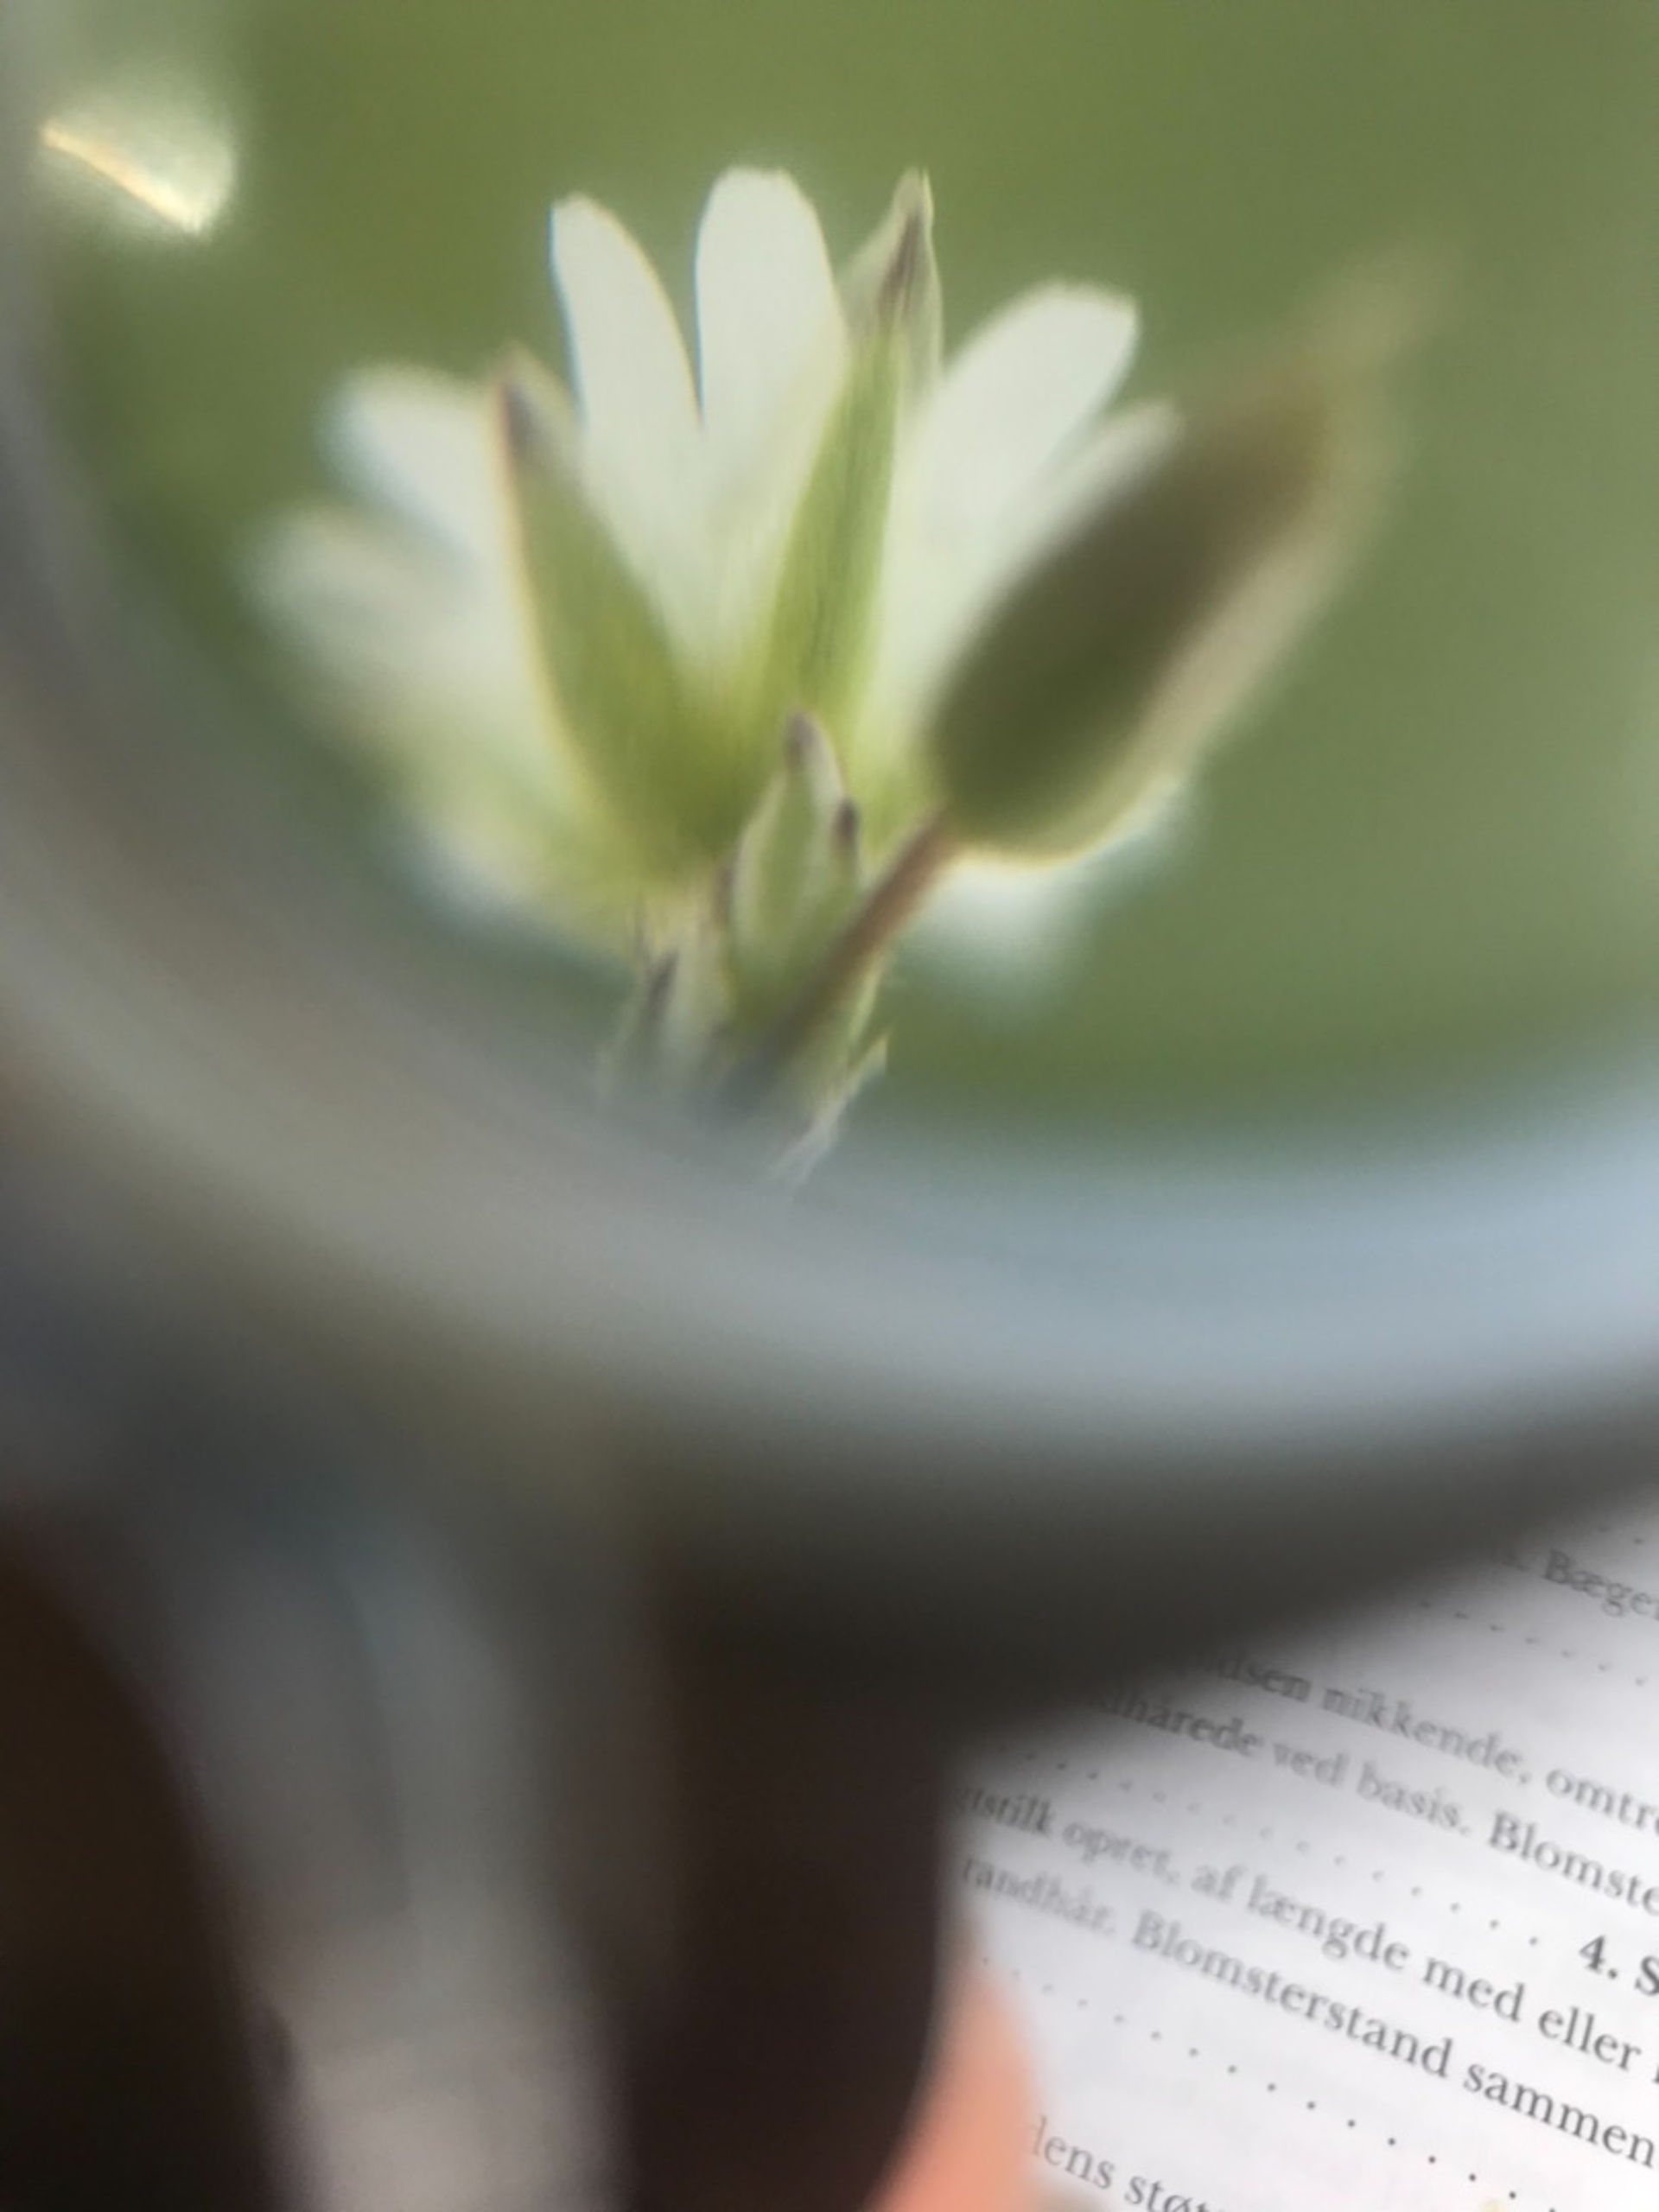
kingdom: Plantae
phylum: Tracheophyta
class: Magnoliopsida
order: Caryophyllales
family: Caryophyllaceae
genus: Cerastium
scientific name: Cerastium fontanum
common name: Almindelig hønsetarm
